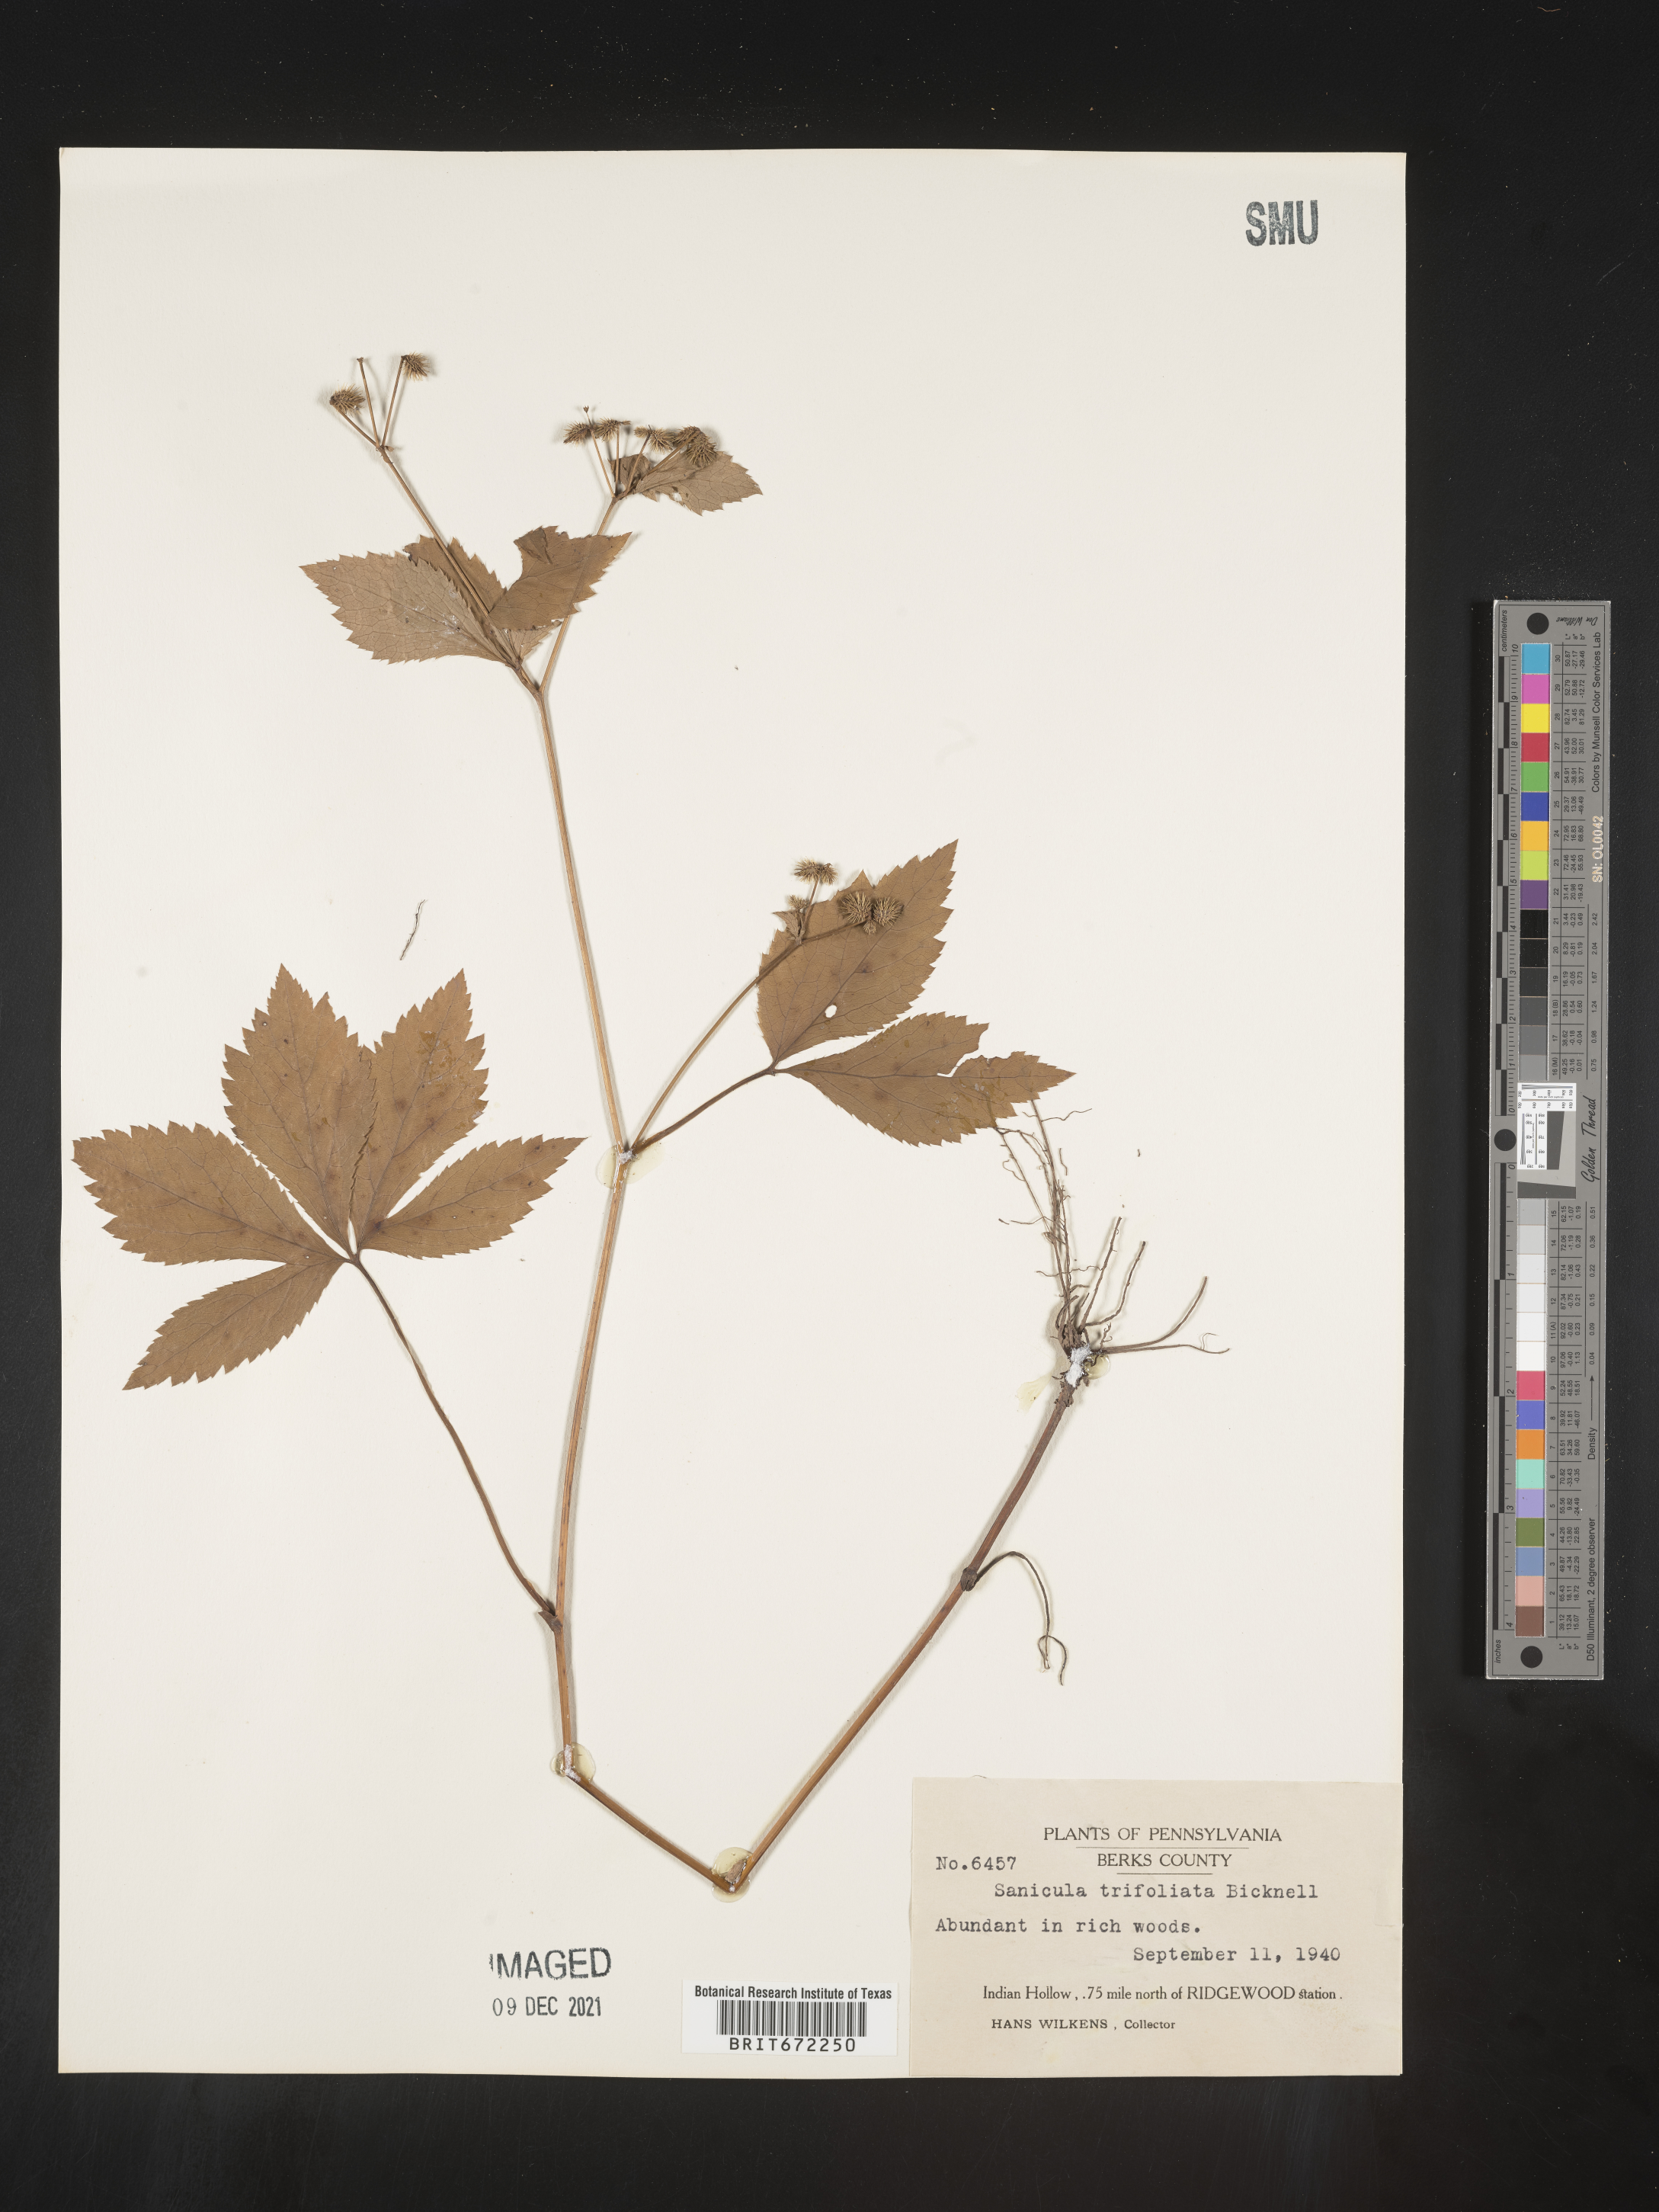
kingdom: Plantae
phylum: Tracheophyta
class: Magnoliopsida
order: Apiales
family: Apiaceae
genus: Sanicula
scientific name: Sanicula
